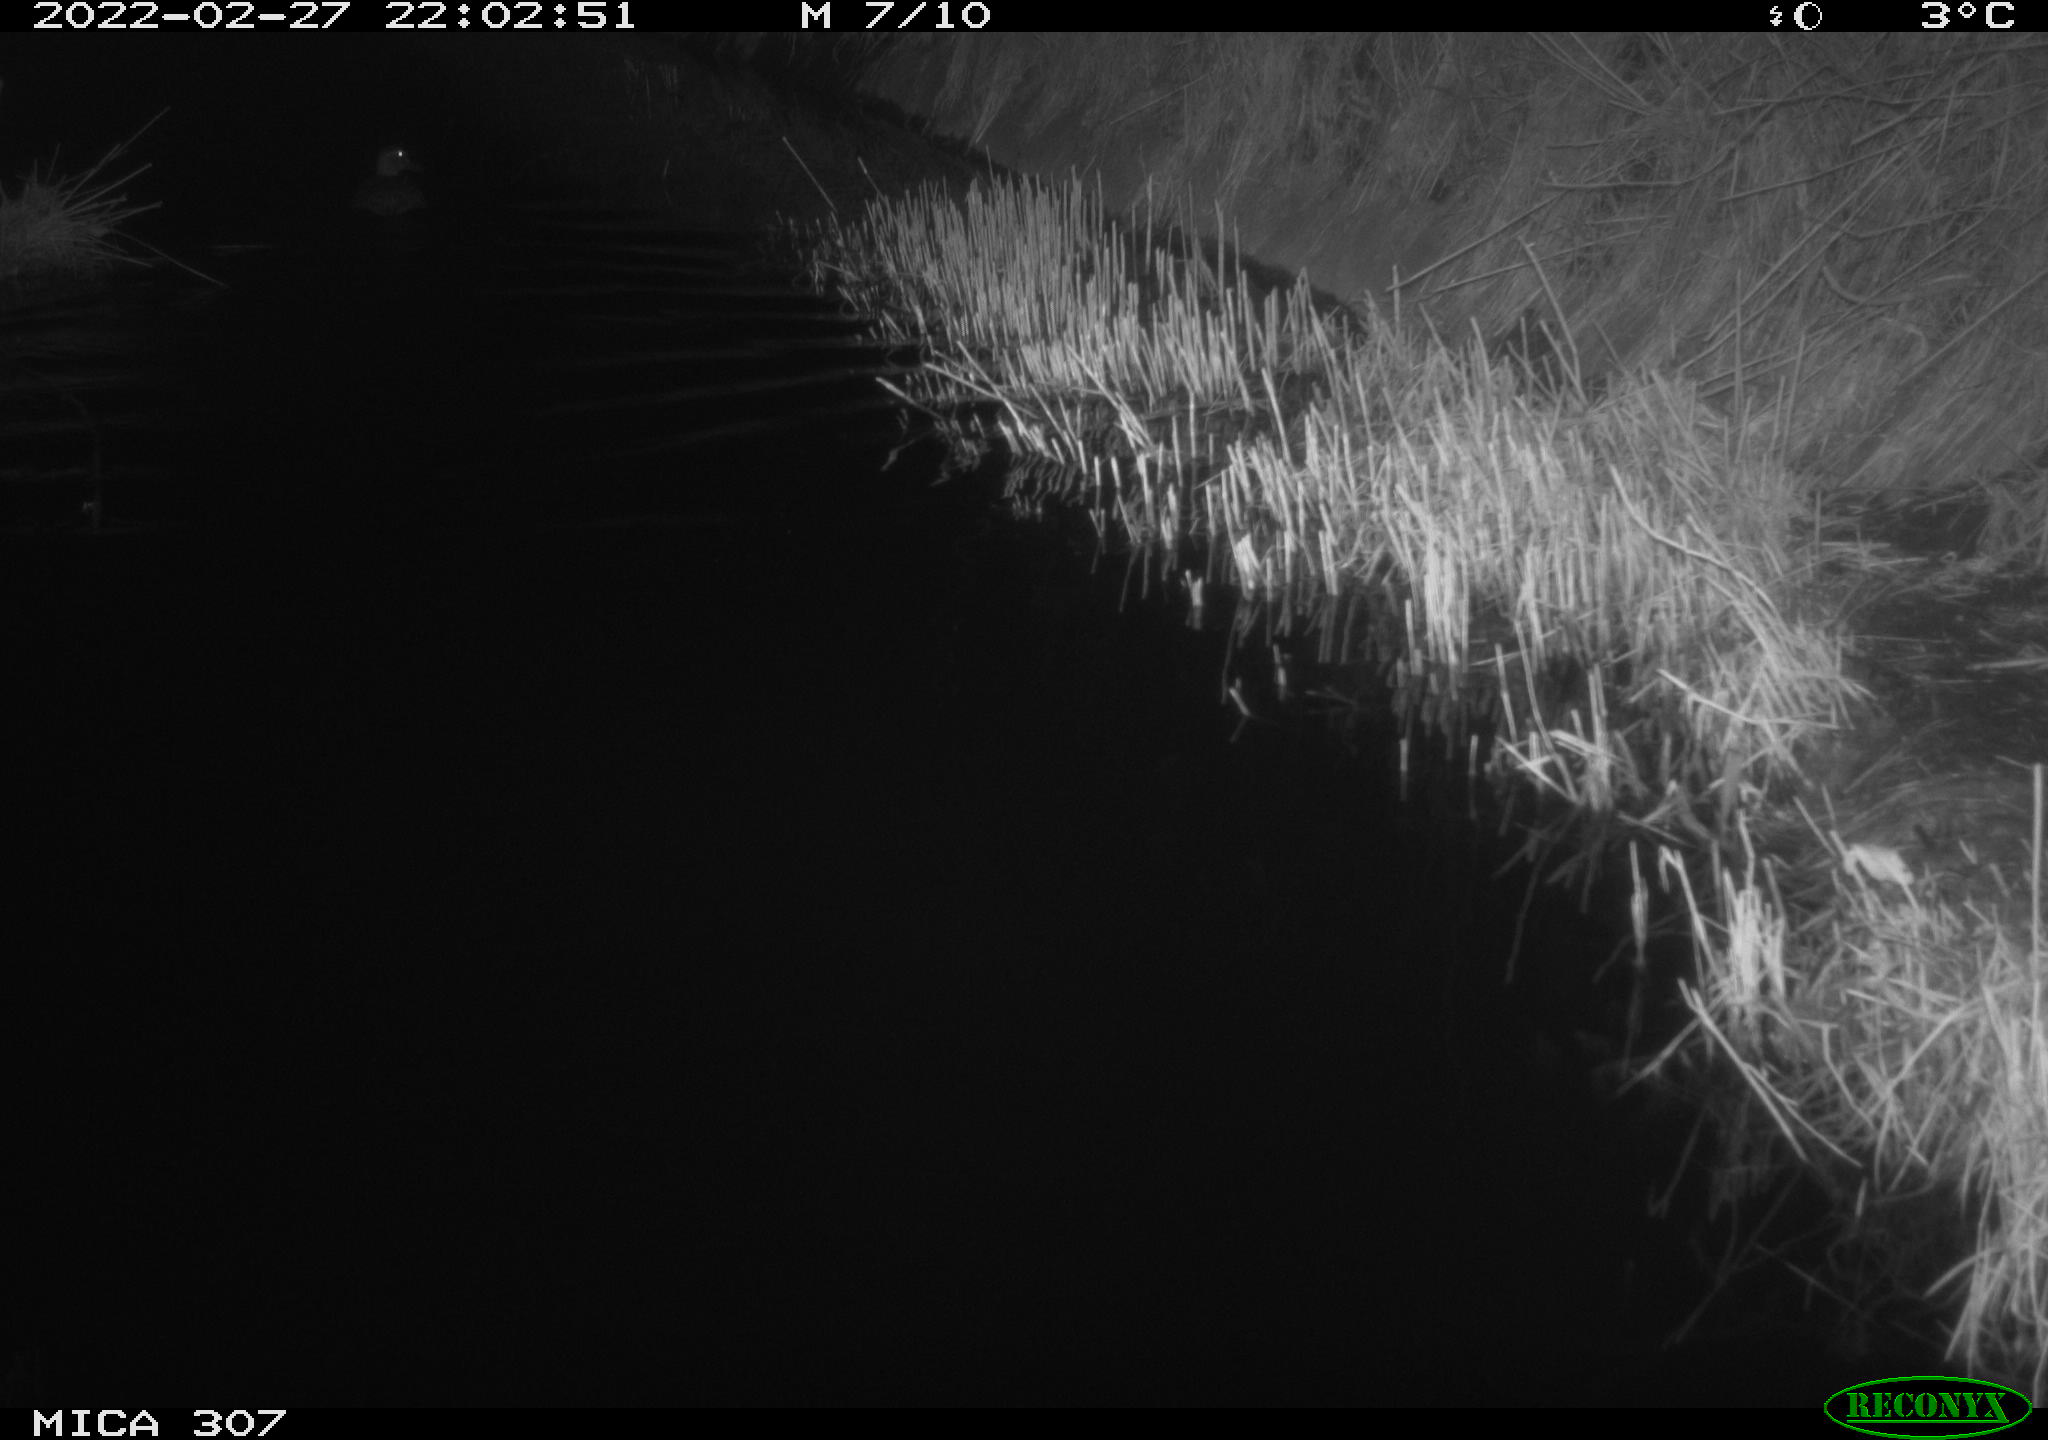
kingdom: Animalia
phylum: Chordata
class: Aves
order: Anseriformes
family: Anatidae
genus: Anas
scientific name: Anas platyrhynchos
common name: Mallard
